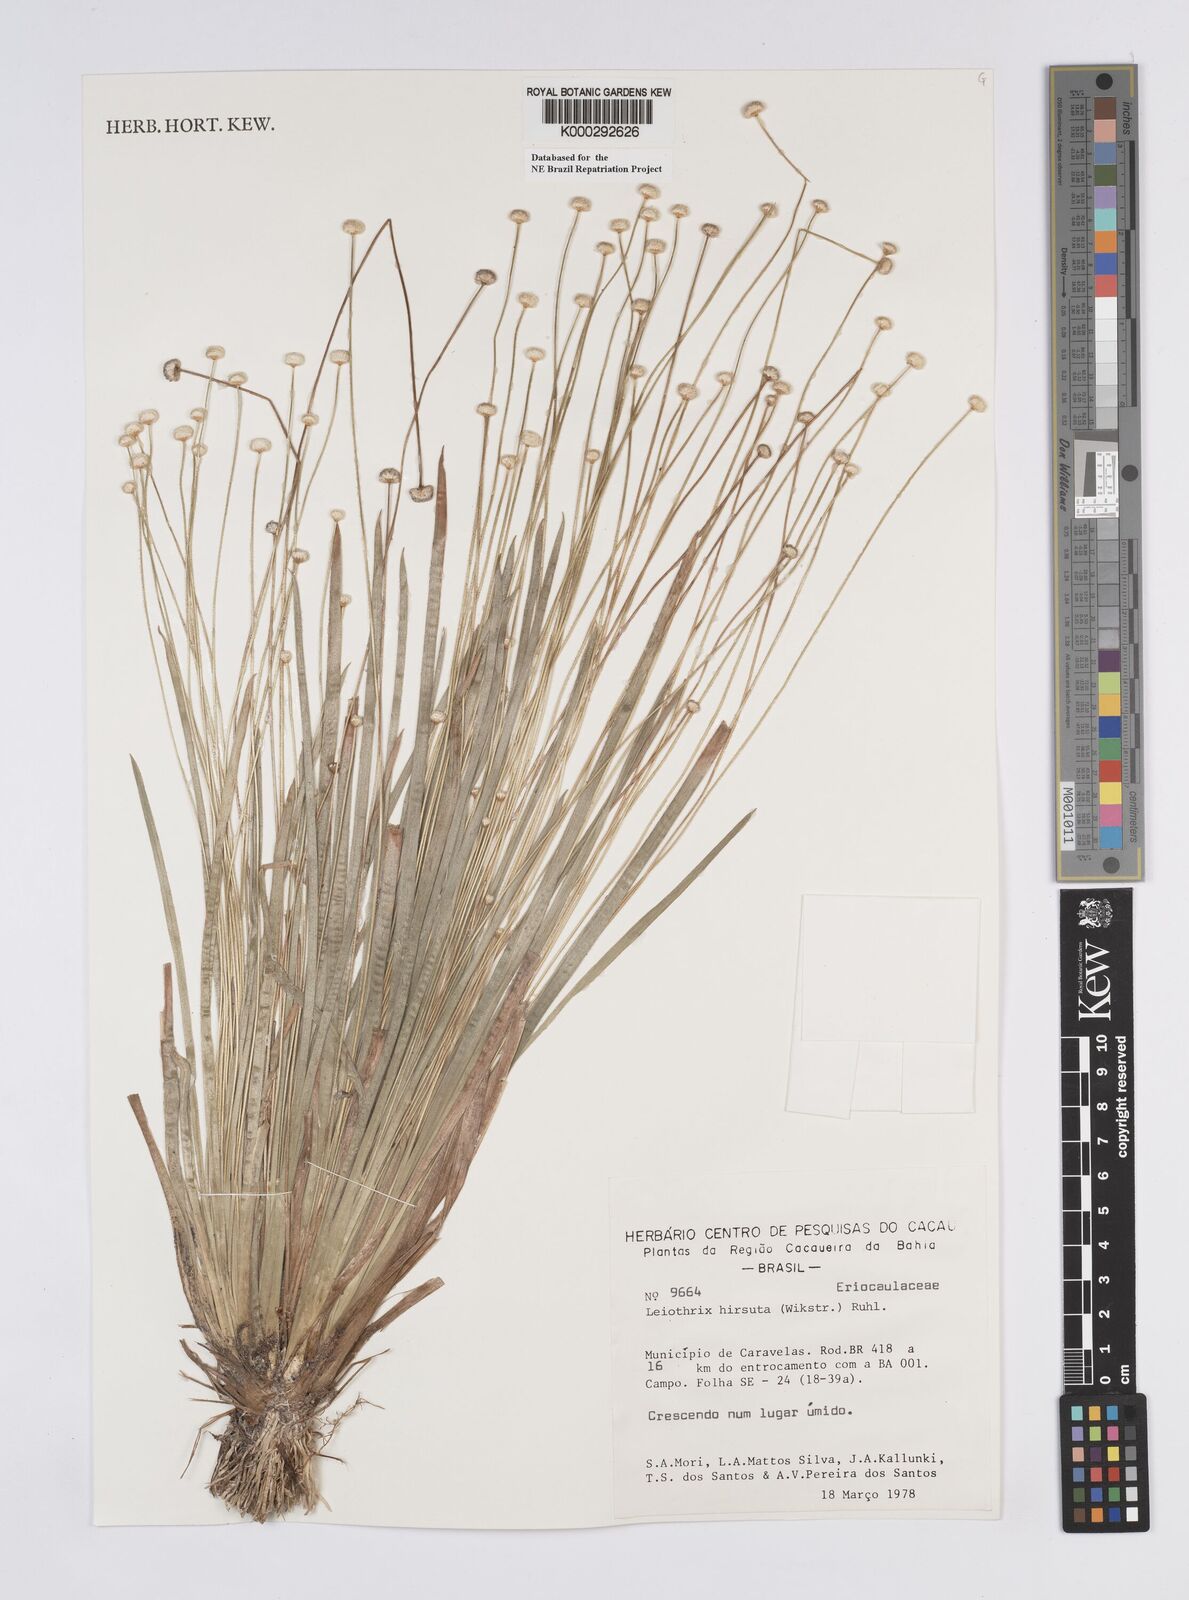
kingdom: Plantae
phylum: Tracheophyta
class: Liliopsida
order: Poales
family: Eriocaulaceae
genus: Leiothrix
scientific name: Leiothrix hirsuta
